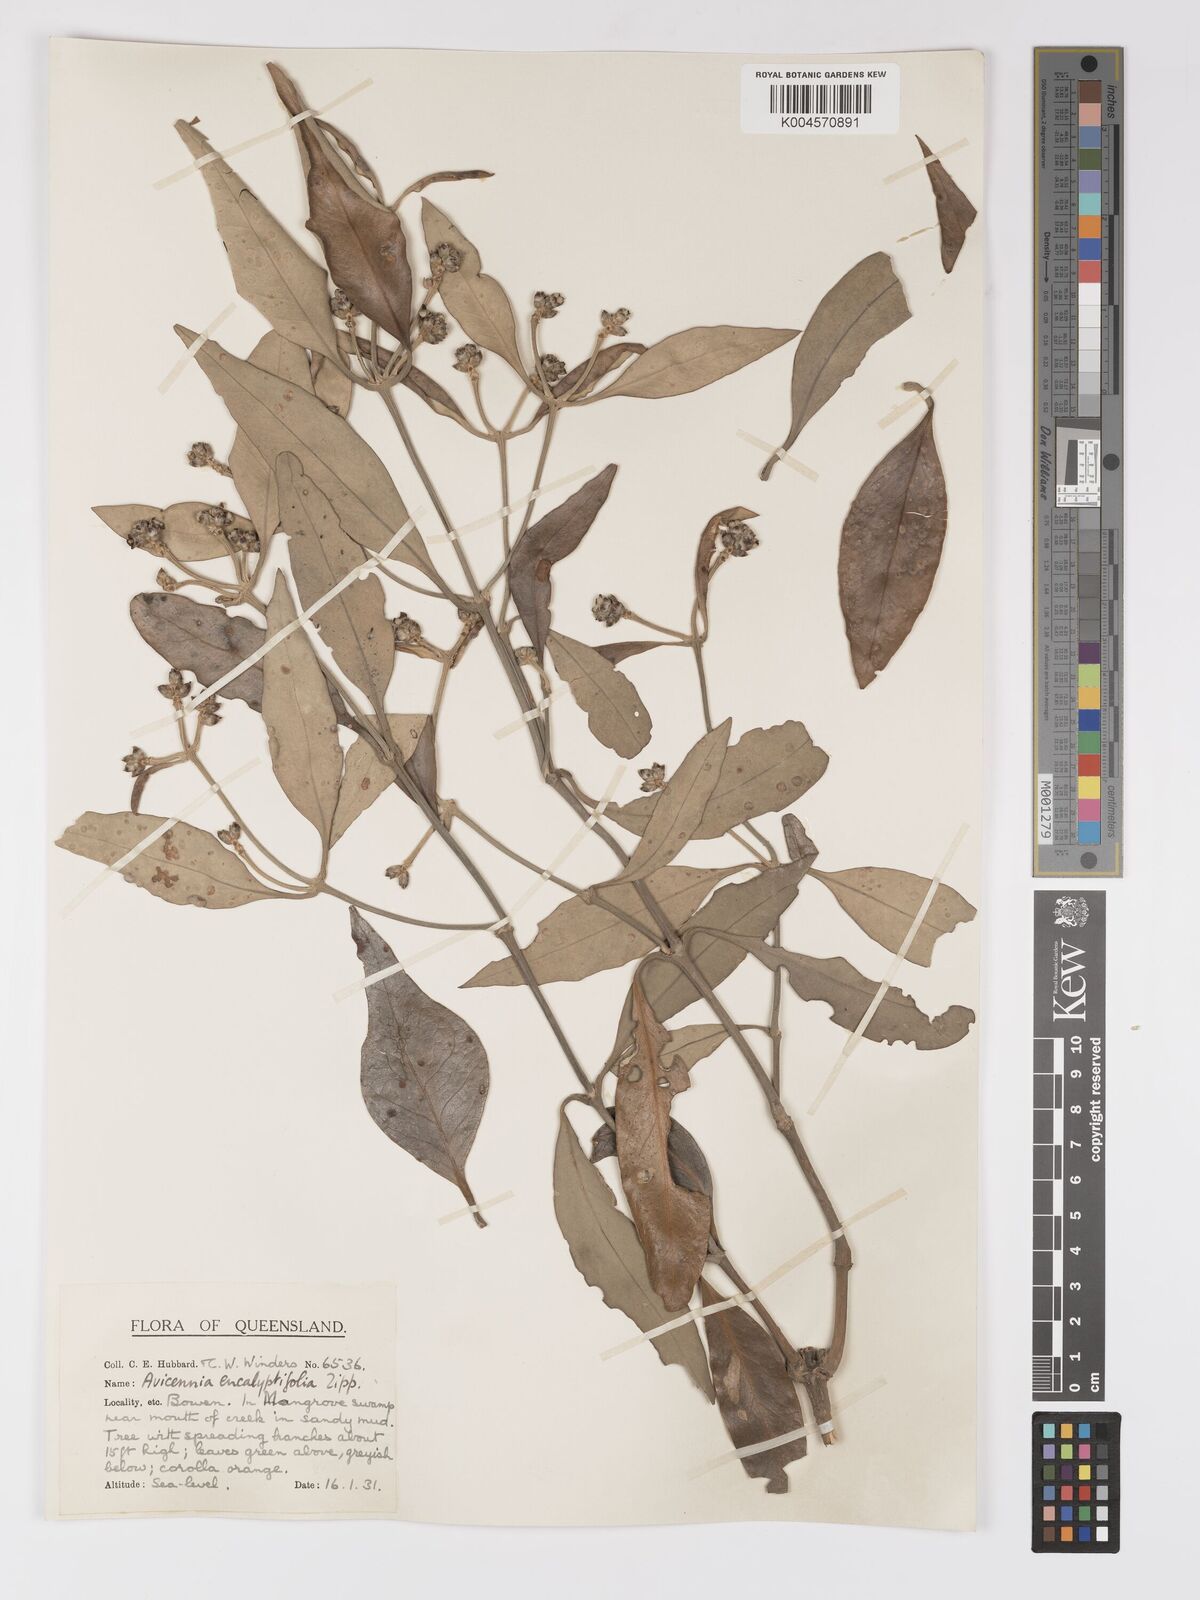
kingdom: Plantae
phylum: Tracheophyta
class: Magnoliopsida
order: Lamiales
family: Acanthaceae
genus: Avicennia
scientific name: Avicennia marina
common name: Gray mangrove
